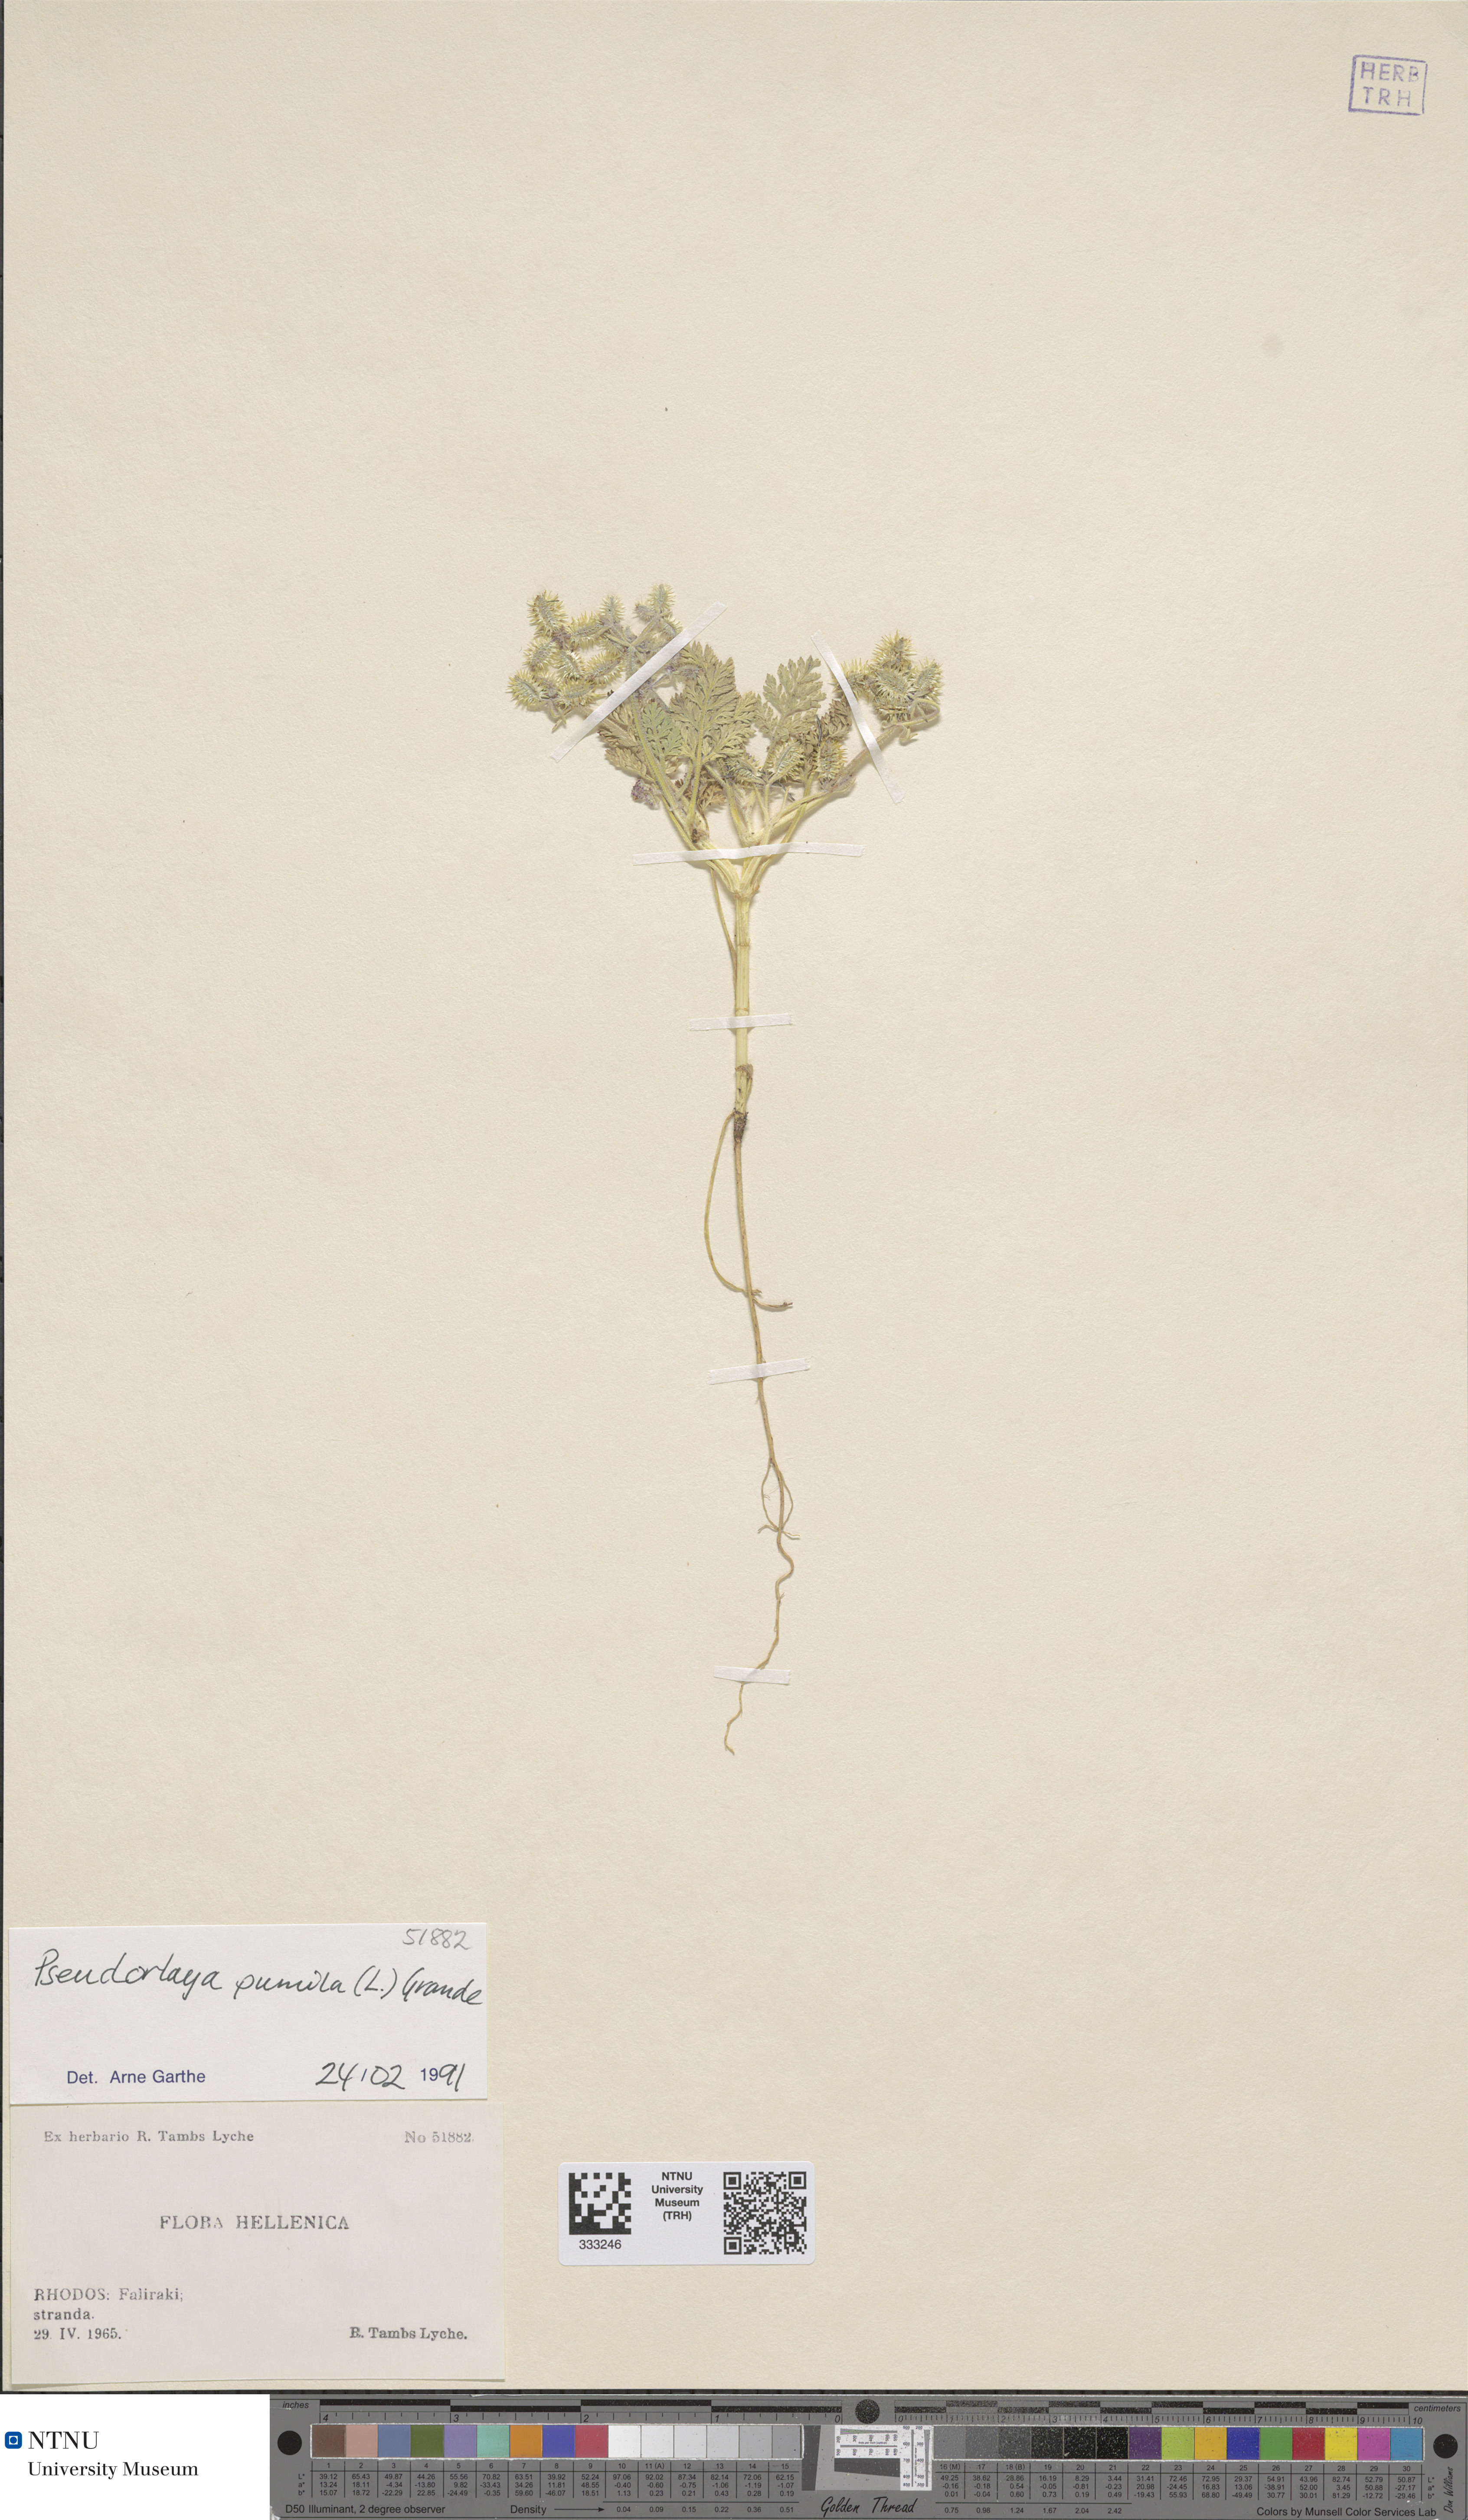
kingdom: Plantae
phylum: Tracheophyta
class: Magnoliopsida
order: Apiales
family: Apiaceae
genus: Daucus
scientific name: Daucus pumilus
